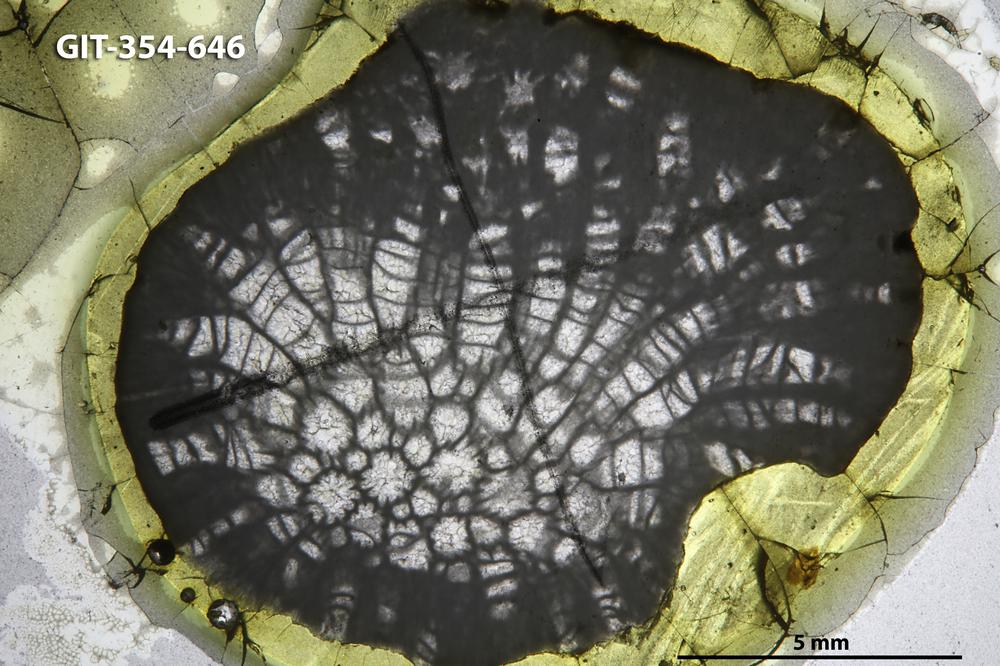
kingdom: Animalia
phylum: Porifera
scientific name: Porifera
